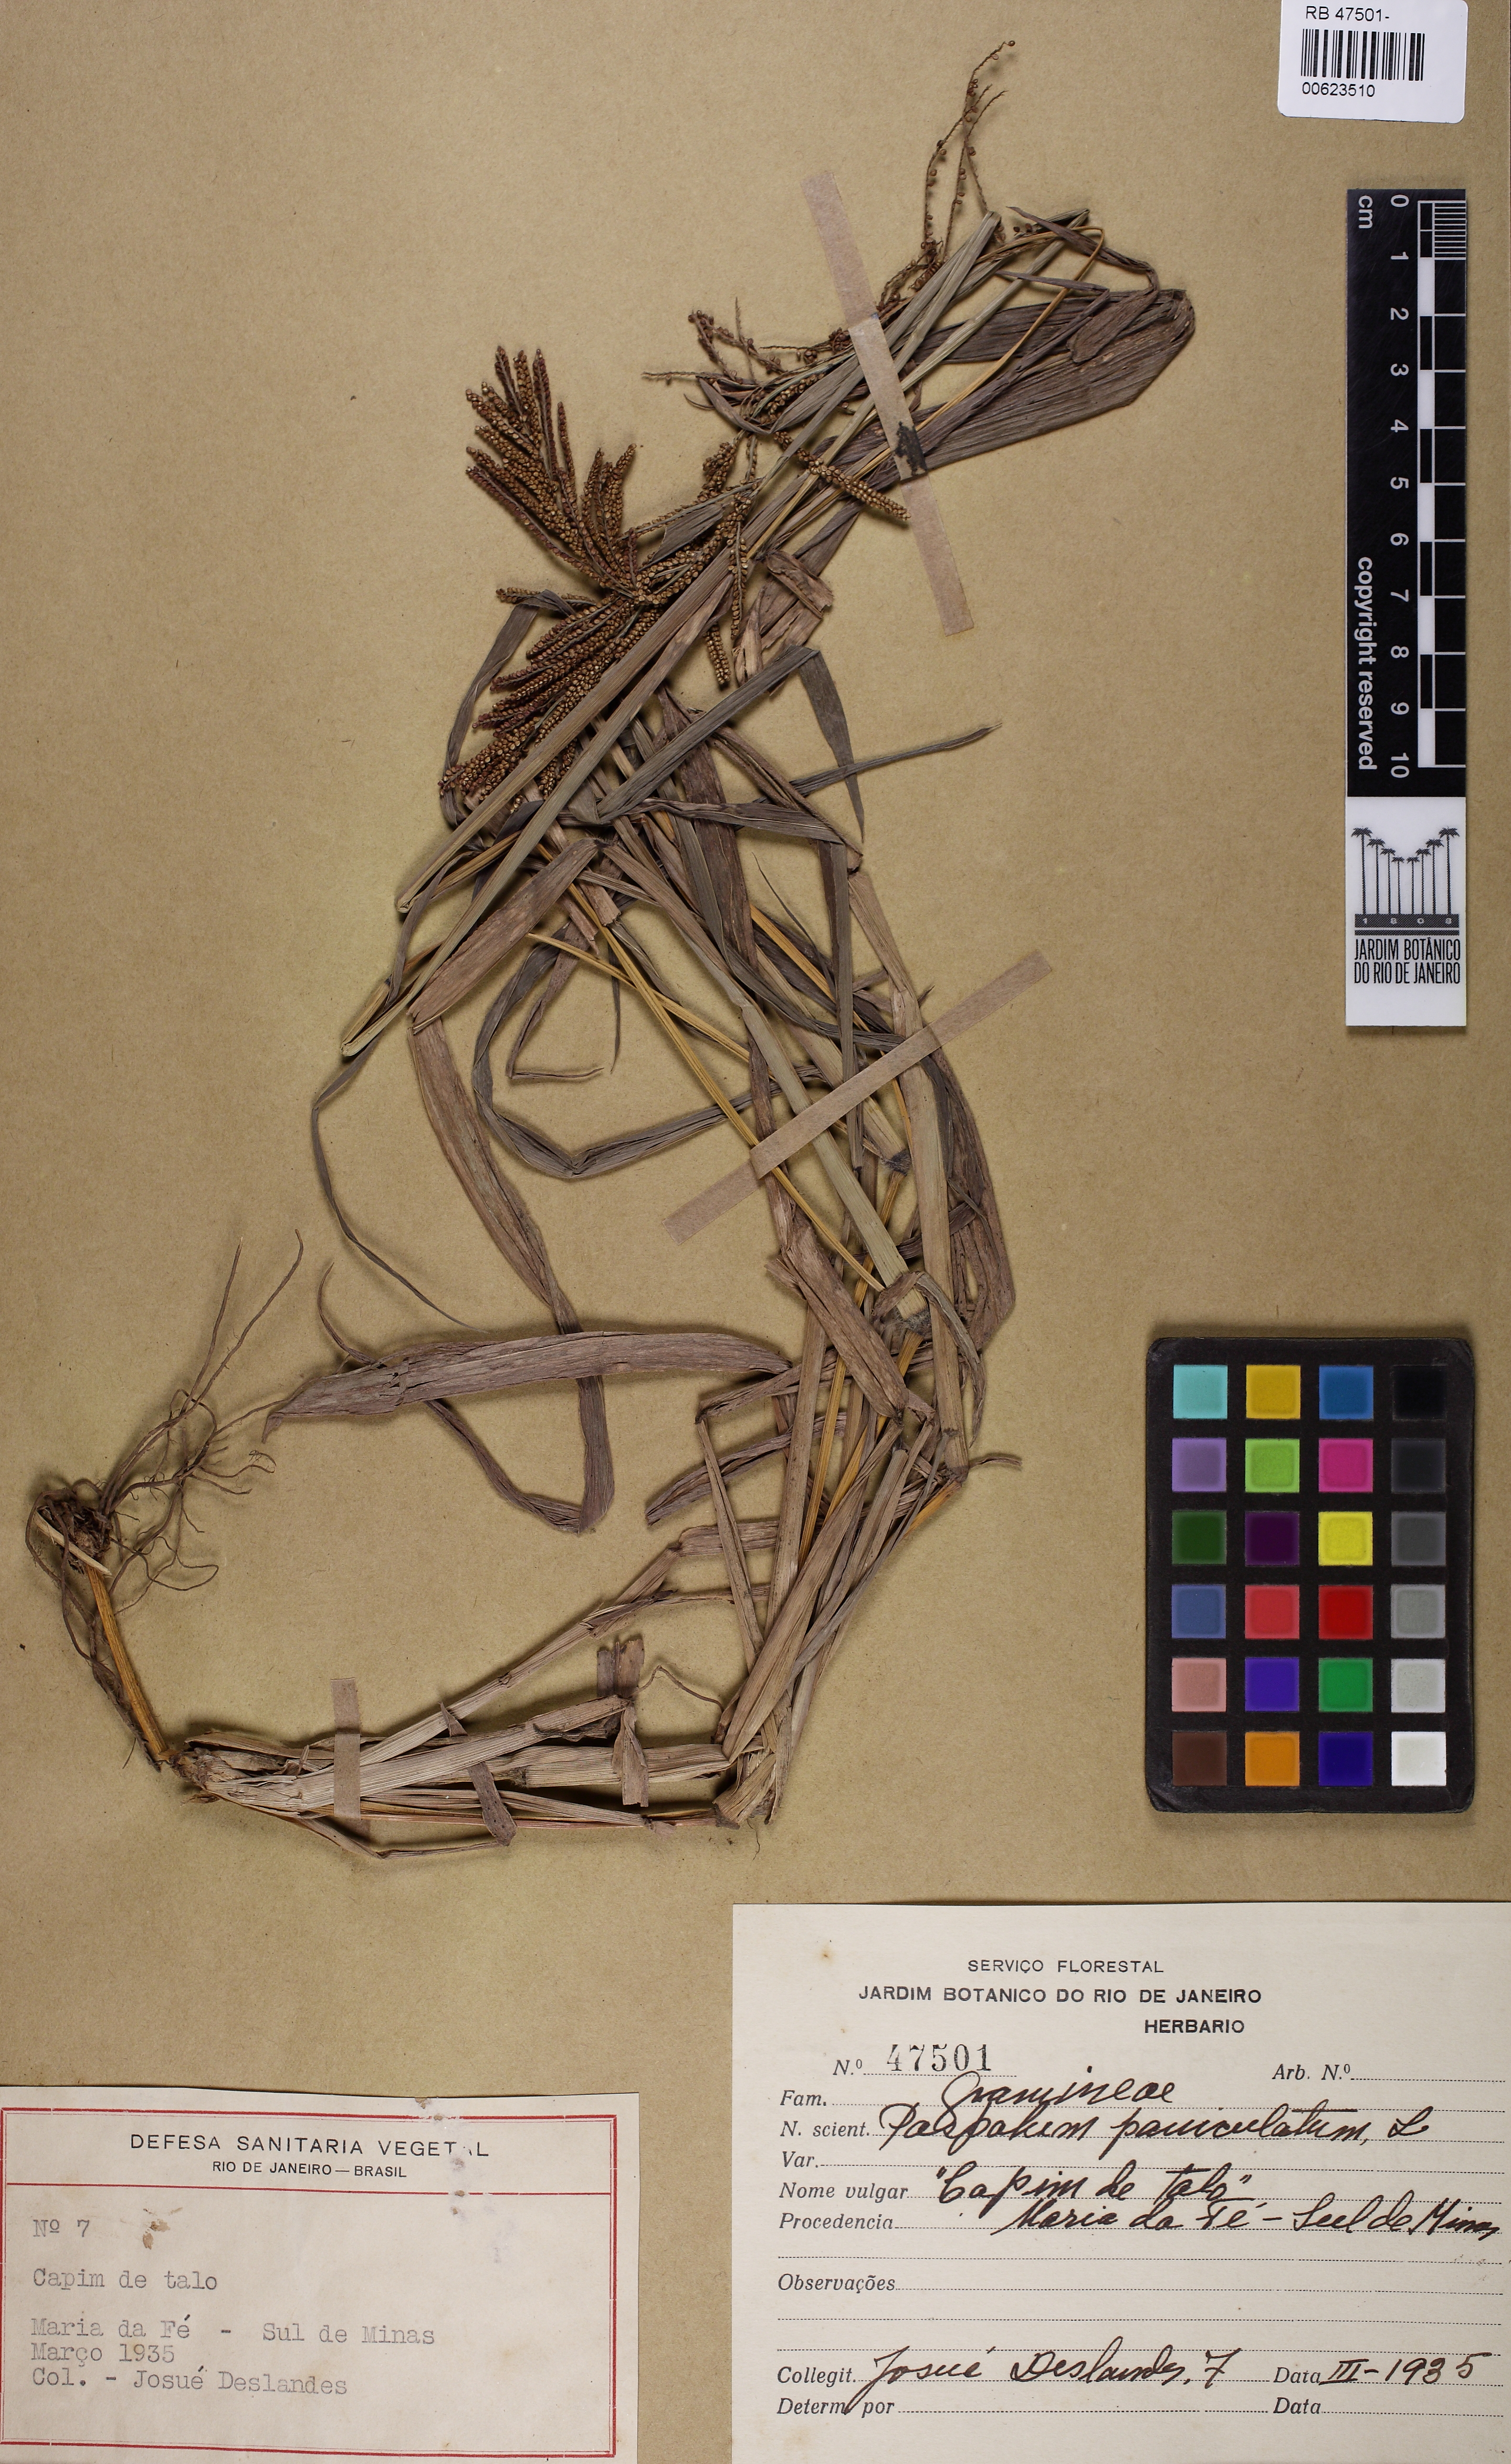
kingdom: Plantae
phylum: Tracheophyta
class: Liliopsida
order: Poales
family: Poaceae
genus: Paspalum
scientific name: Paspalum paniculatum
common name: Arrocillo
